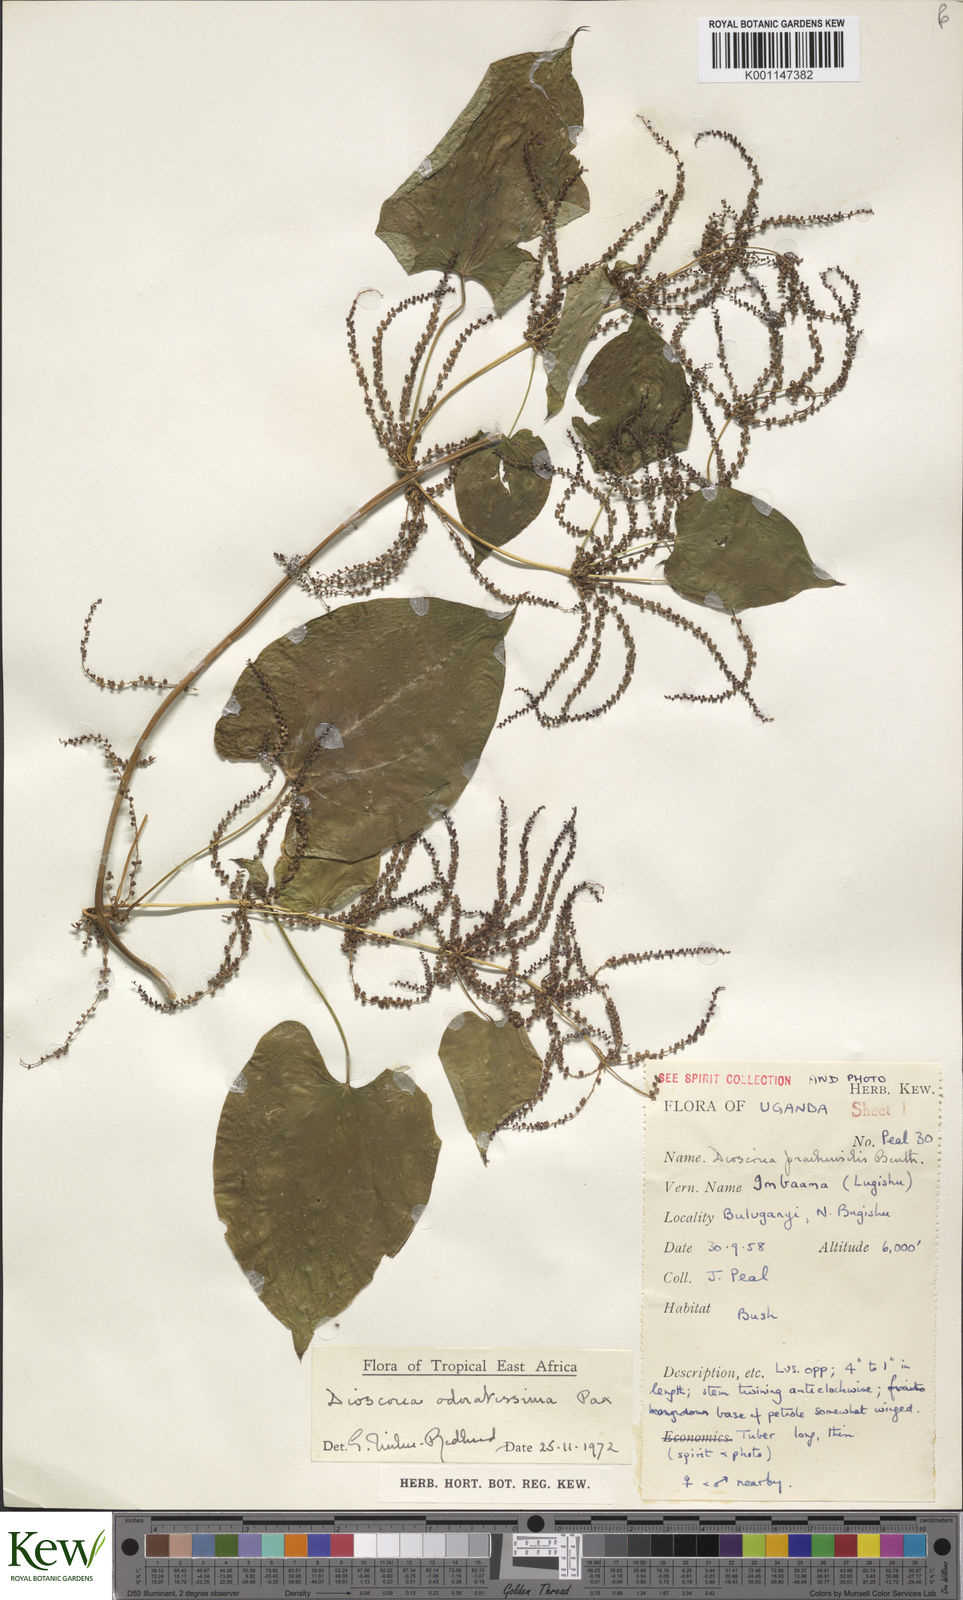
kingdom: Plantae
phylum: Tracheophyta
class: Liliopsida
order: Dioscoreales
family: Dioscoreaceae
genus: Dioscorea
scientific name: Dioscorea praehensilis
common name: Bush yam
